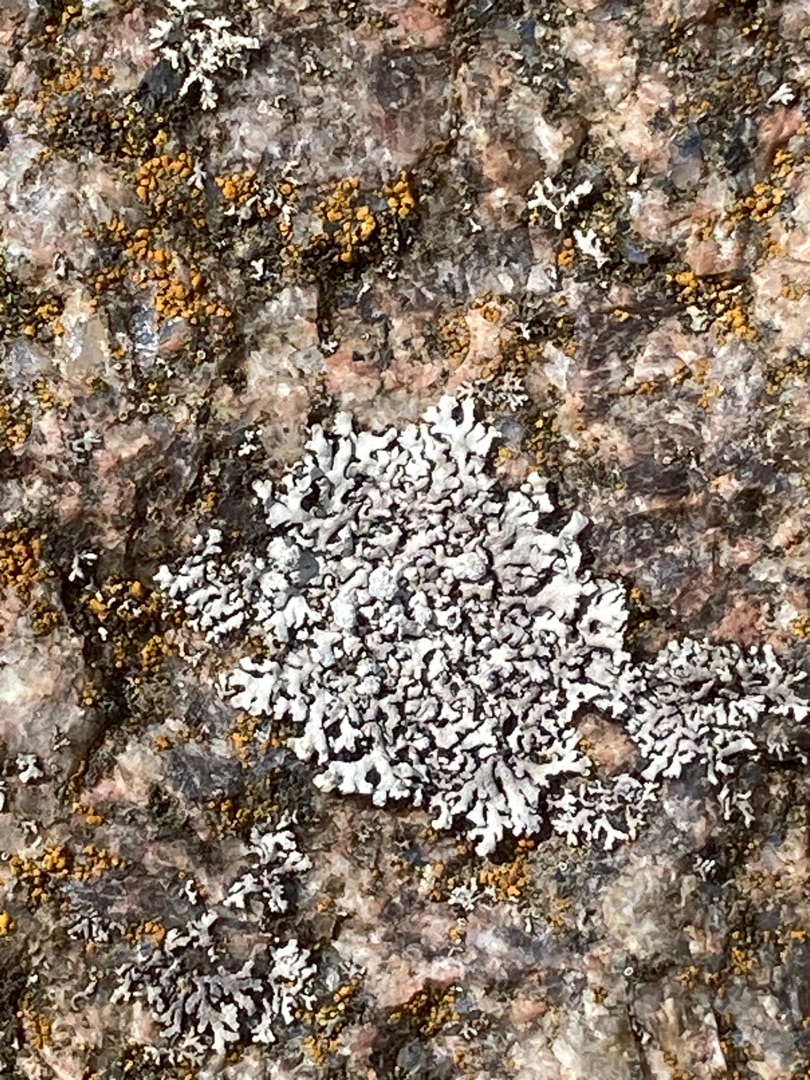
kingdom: Fungi
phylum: Ascomycota
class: Lecanoromycetes
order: Caliciales
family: Physciaceae
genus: Physcia
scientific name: Physcia caesia
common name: Blågrå rosetlav
